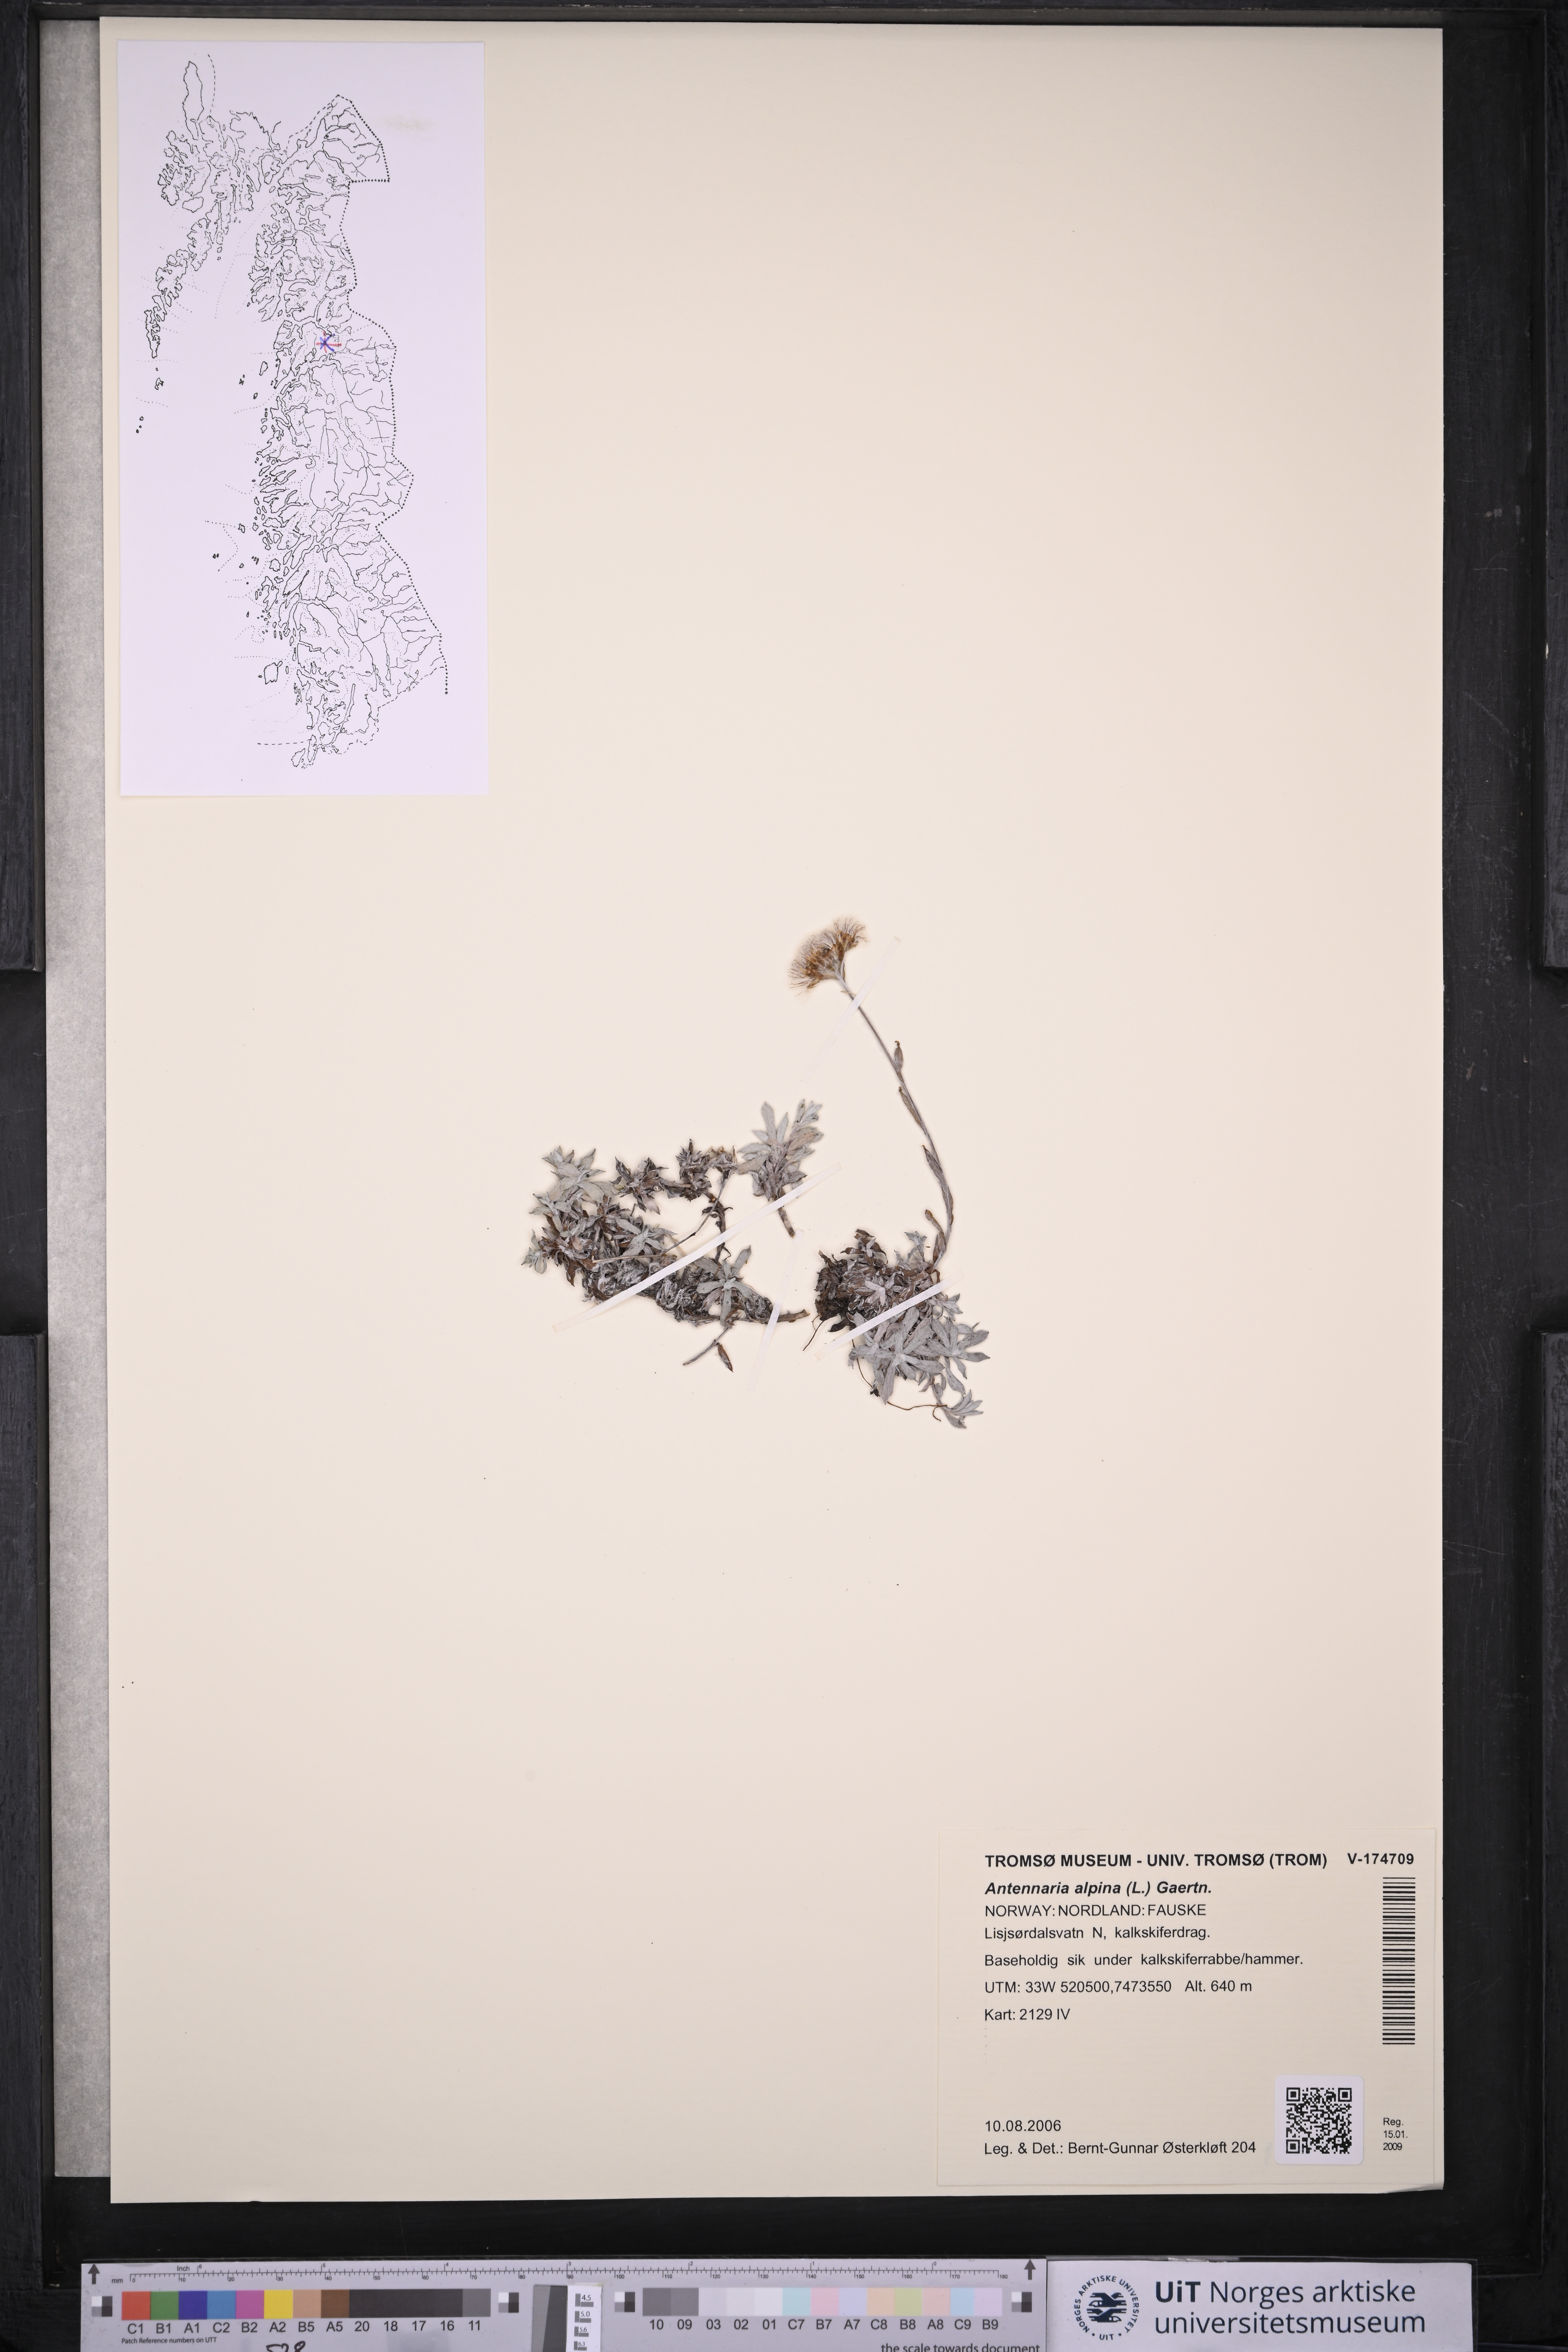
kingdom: Plantae
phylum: Tracheophyta
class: Magnoliopsida
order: Asterales
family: Asteraceae
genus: Antennaria
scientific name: Antennaria alpina
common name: Alpine pussytoes
